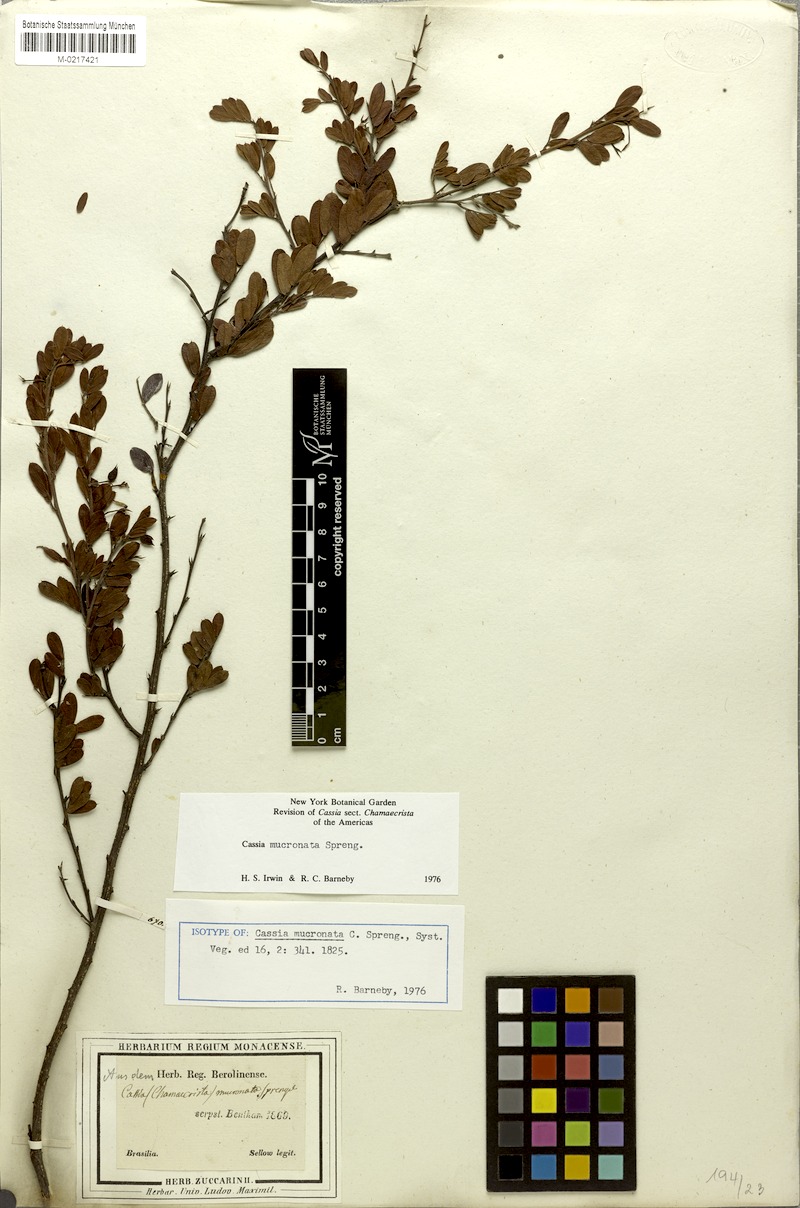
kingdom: Plantae
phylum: Tracheophyta
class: Magnoliopsida
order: Fabales
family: Fabaceae
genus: Chamaecrista
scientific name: Chamaecrista mucronata
